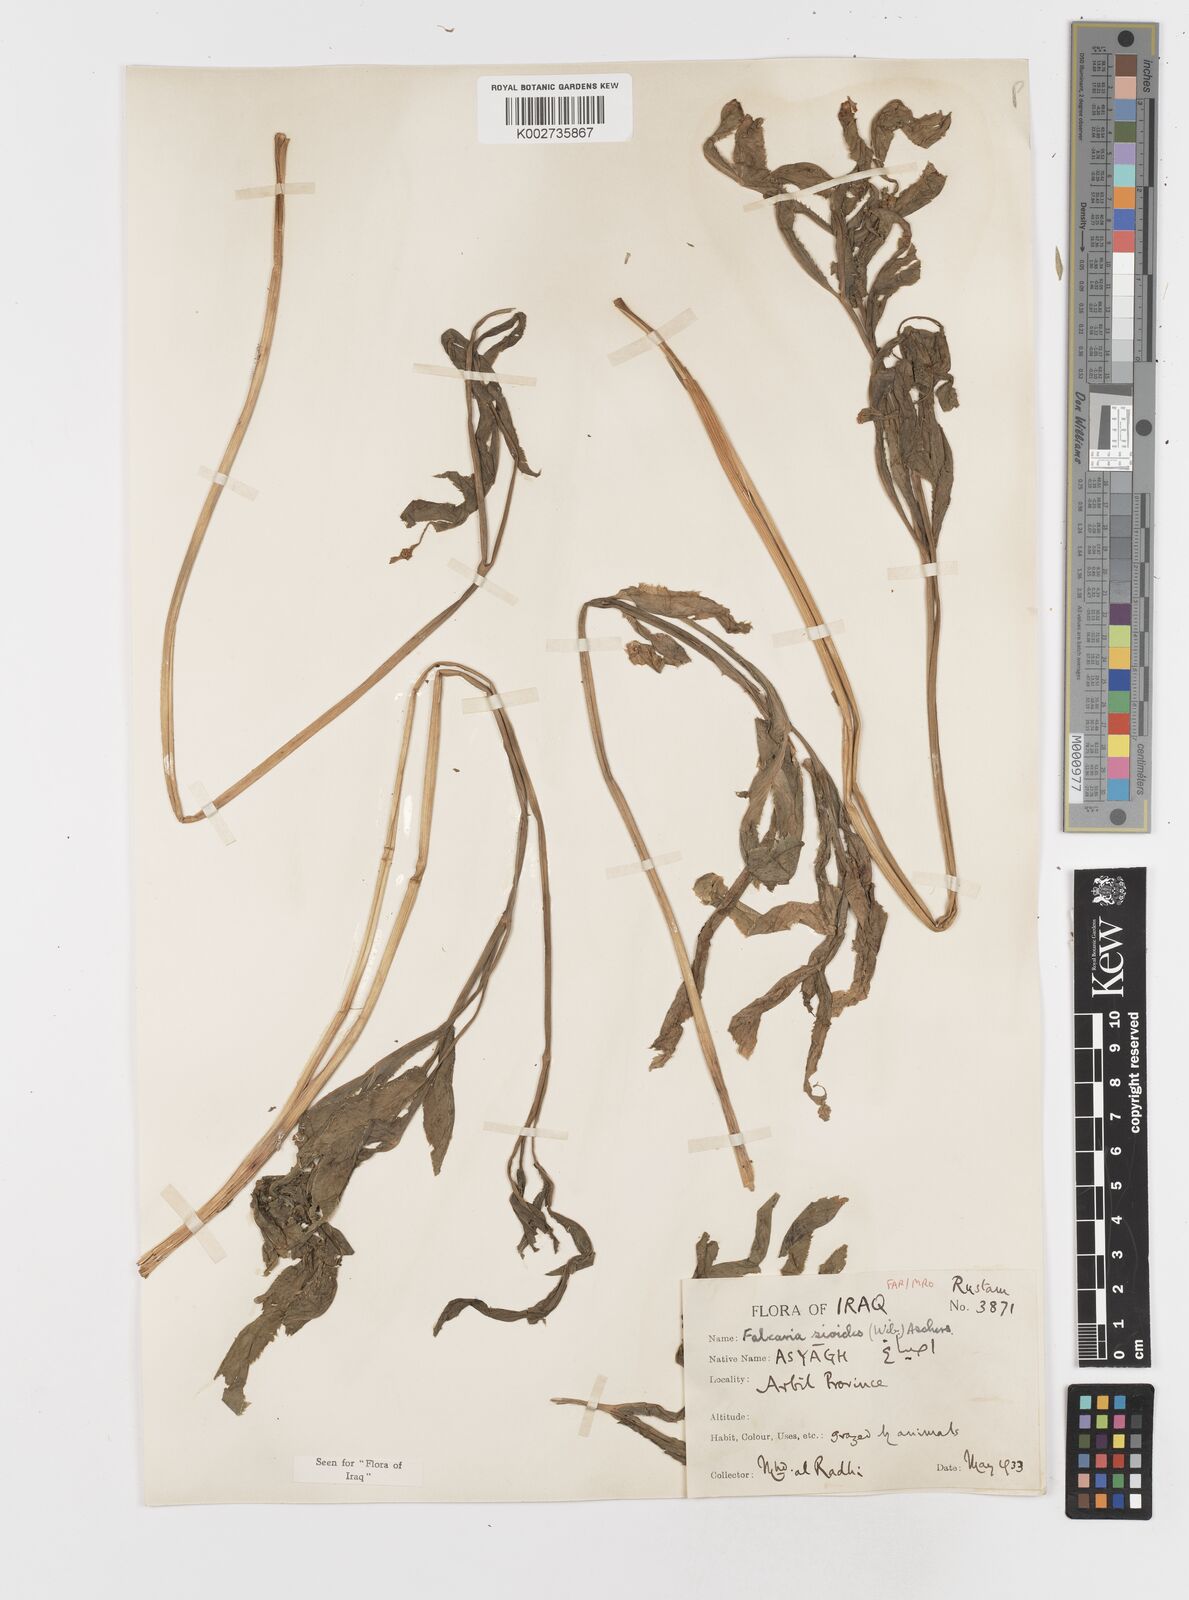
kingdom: Plantae
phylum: Tracheophyta
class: Magnoliopsida
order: Apiales
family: Apiaceae
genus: Falcaria
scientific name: Falcaria vulgaris
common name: Longleaf
